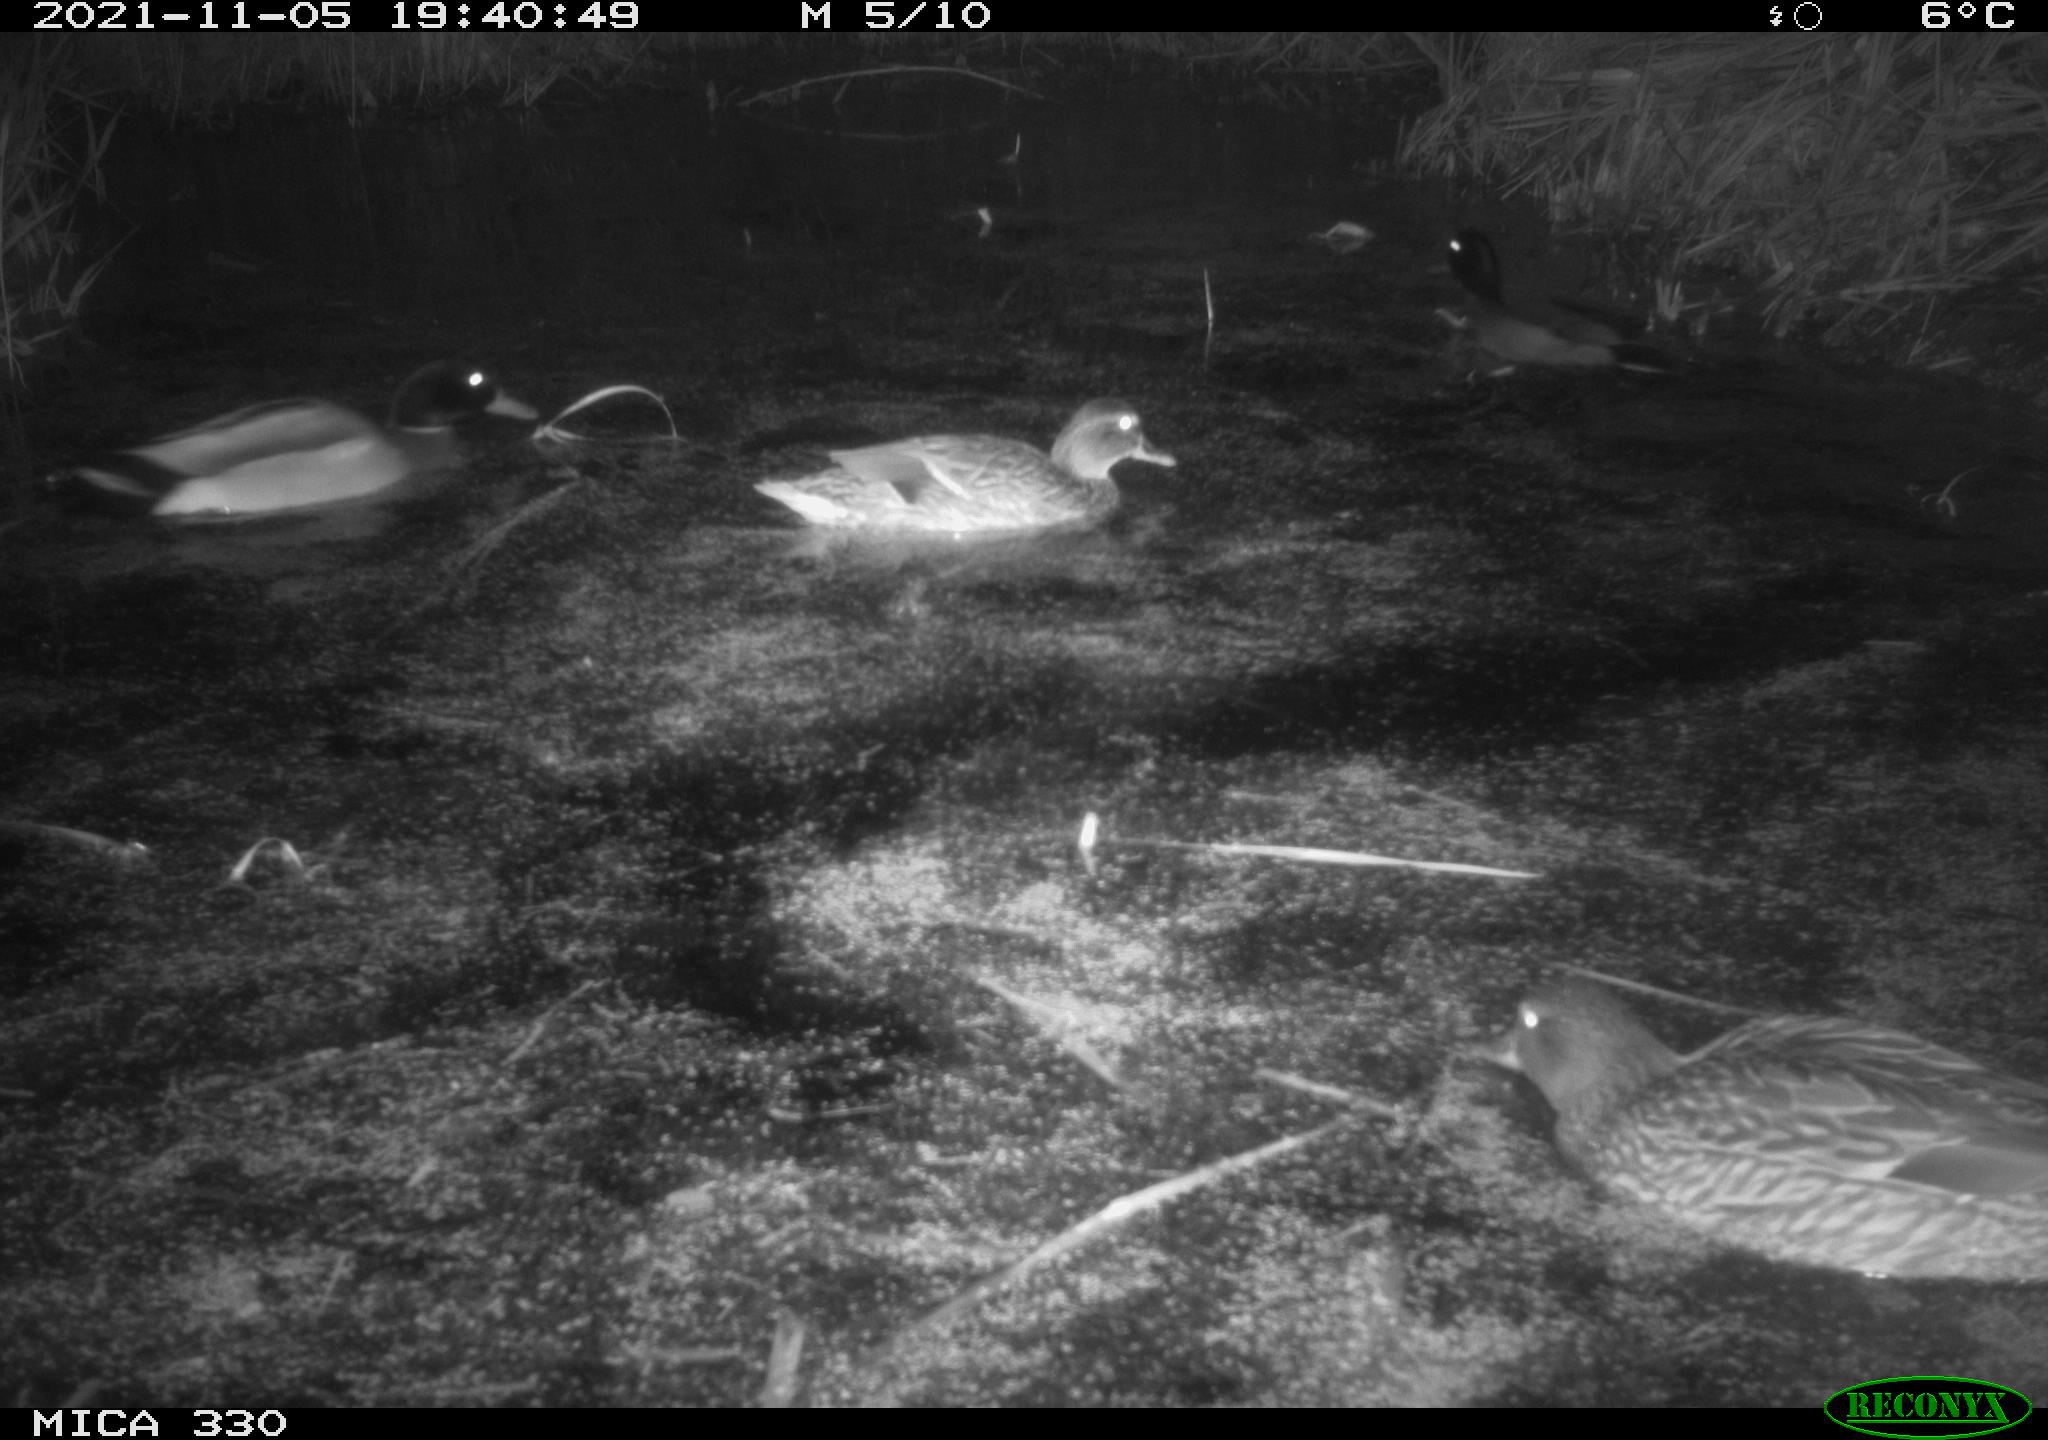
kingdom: Animalia
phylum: Chordata
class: Aves
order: Anseriformes
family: Anatidae
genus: Anas
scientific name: Anas platyrhynchos
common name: Mallard
